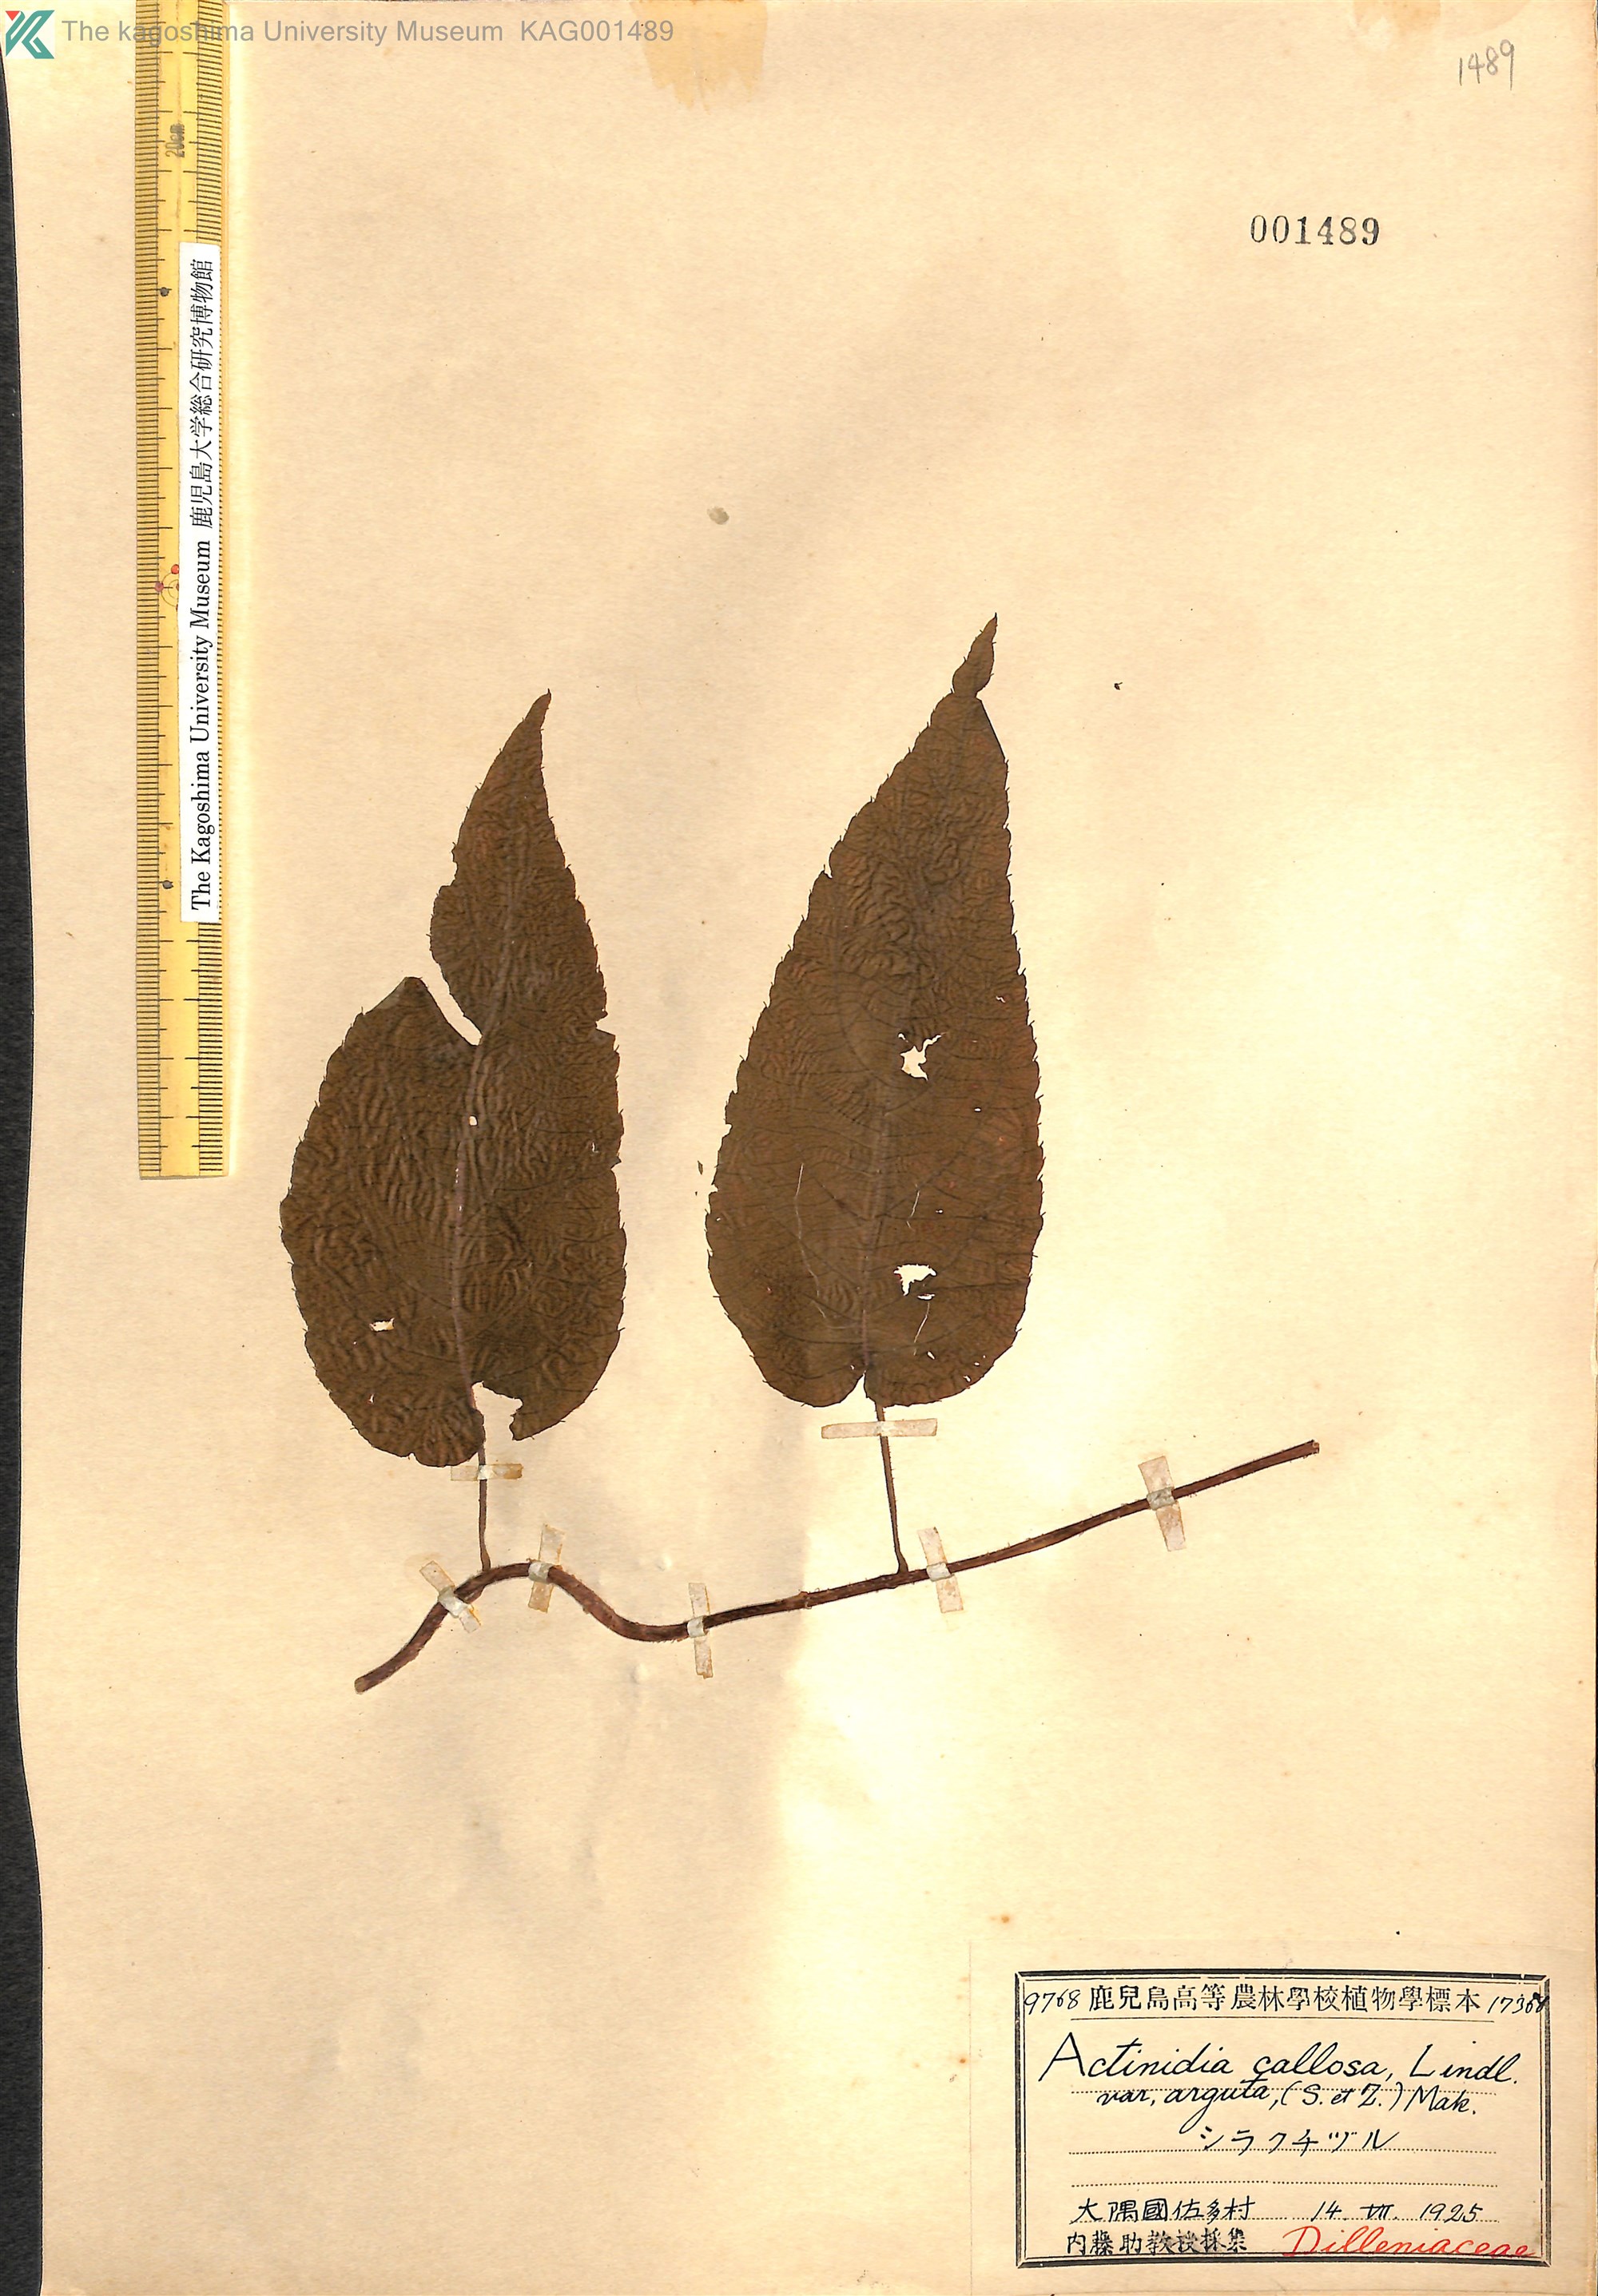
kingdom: Plantae
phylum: Tracheophyta
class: Magnoliopsida
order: Ericales
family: Actinidiaceae
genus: Actinidia
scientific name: Actinidia arguta
